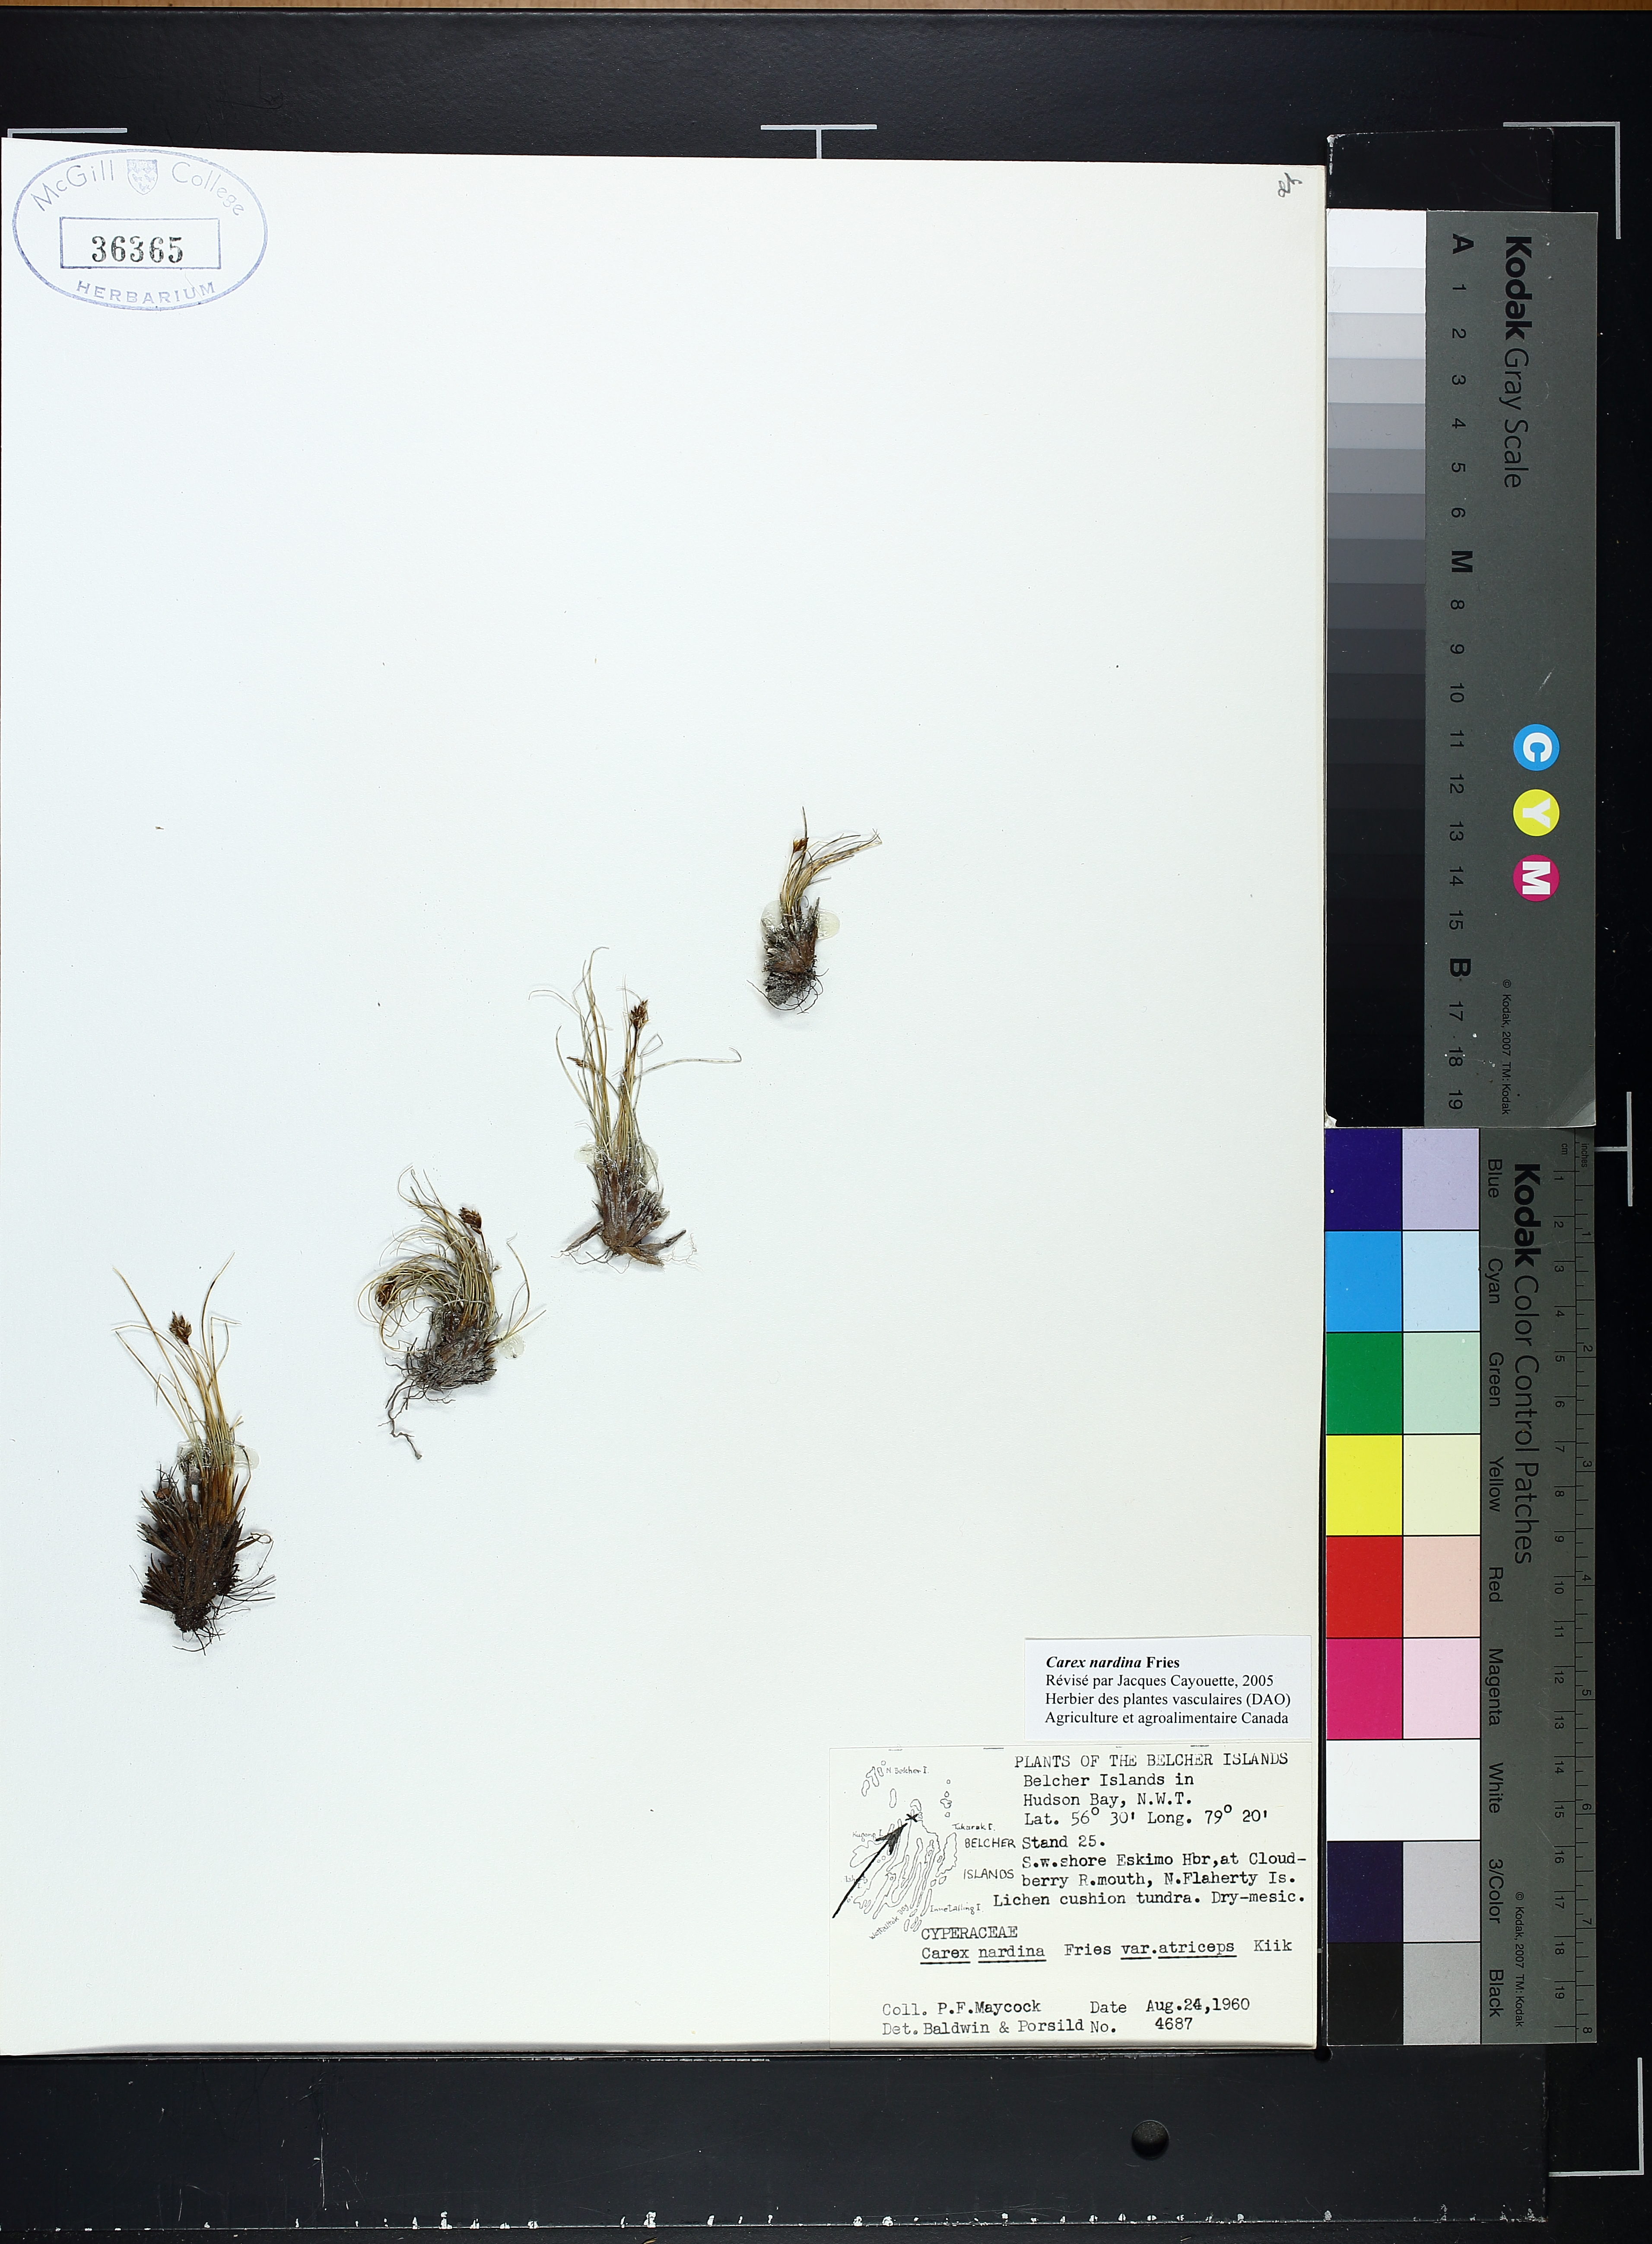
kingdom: Plantae
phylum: Tracheophyta
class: Liliopsida
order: Poales
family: Cyperaceae
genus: Carex
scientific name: Carex nardina
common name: Nard sedge
